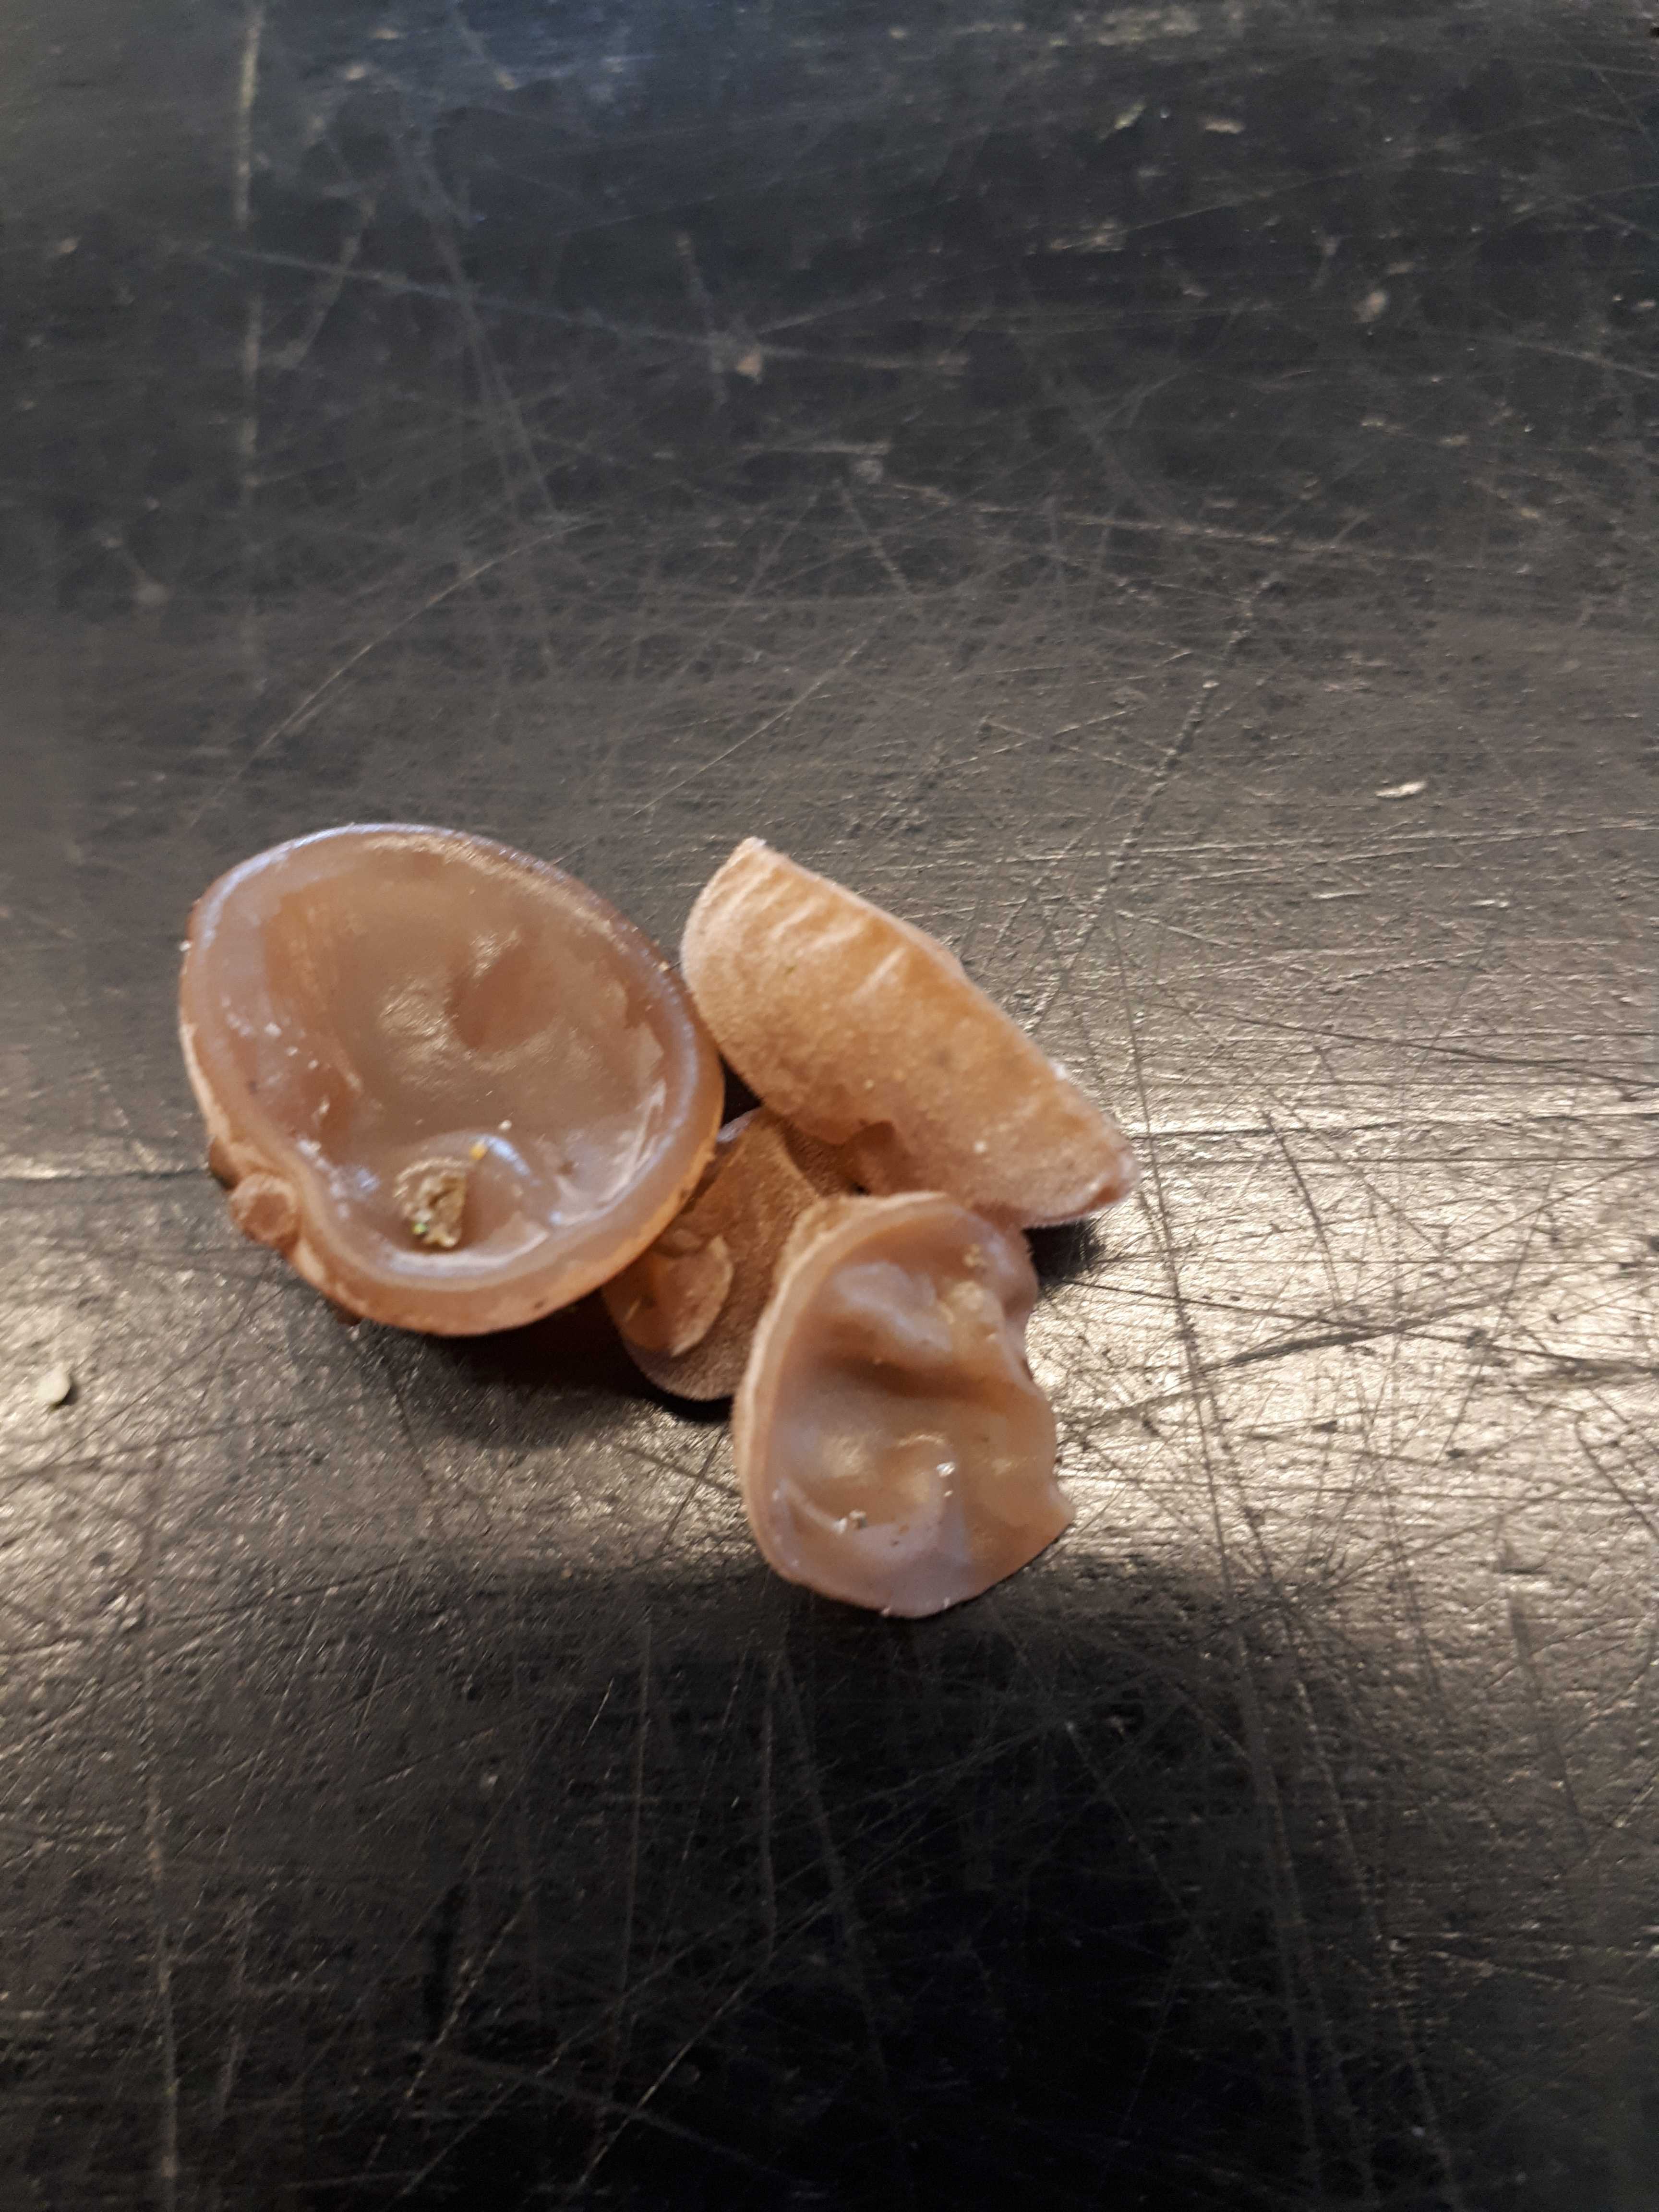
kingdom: Fungi
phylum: Basidiomycota
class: Agaricomycetes
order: Auriculariales
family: Auriculariaceae
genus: Auricularia
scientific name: Auricularia auricula-judae
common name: almindelig judasøre
